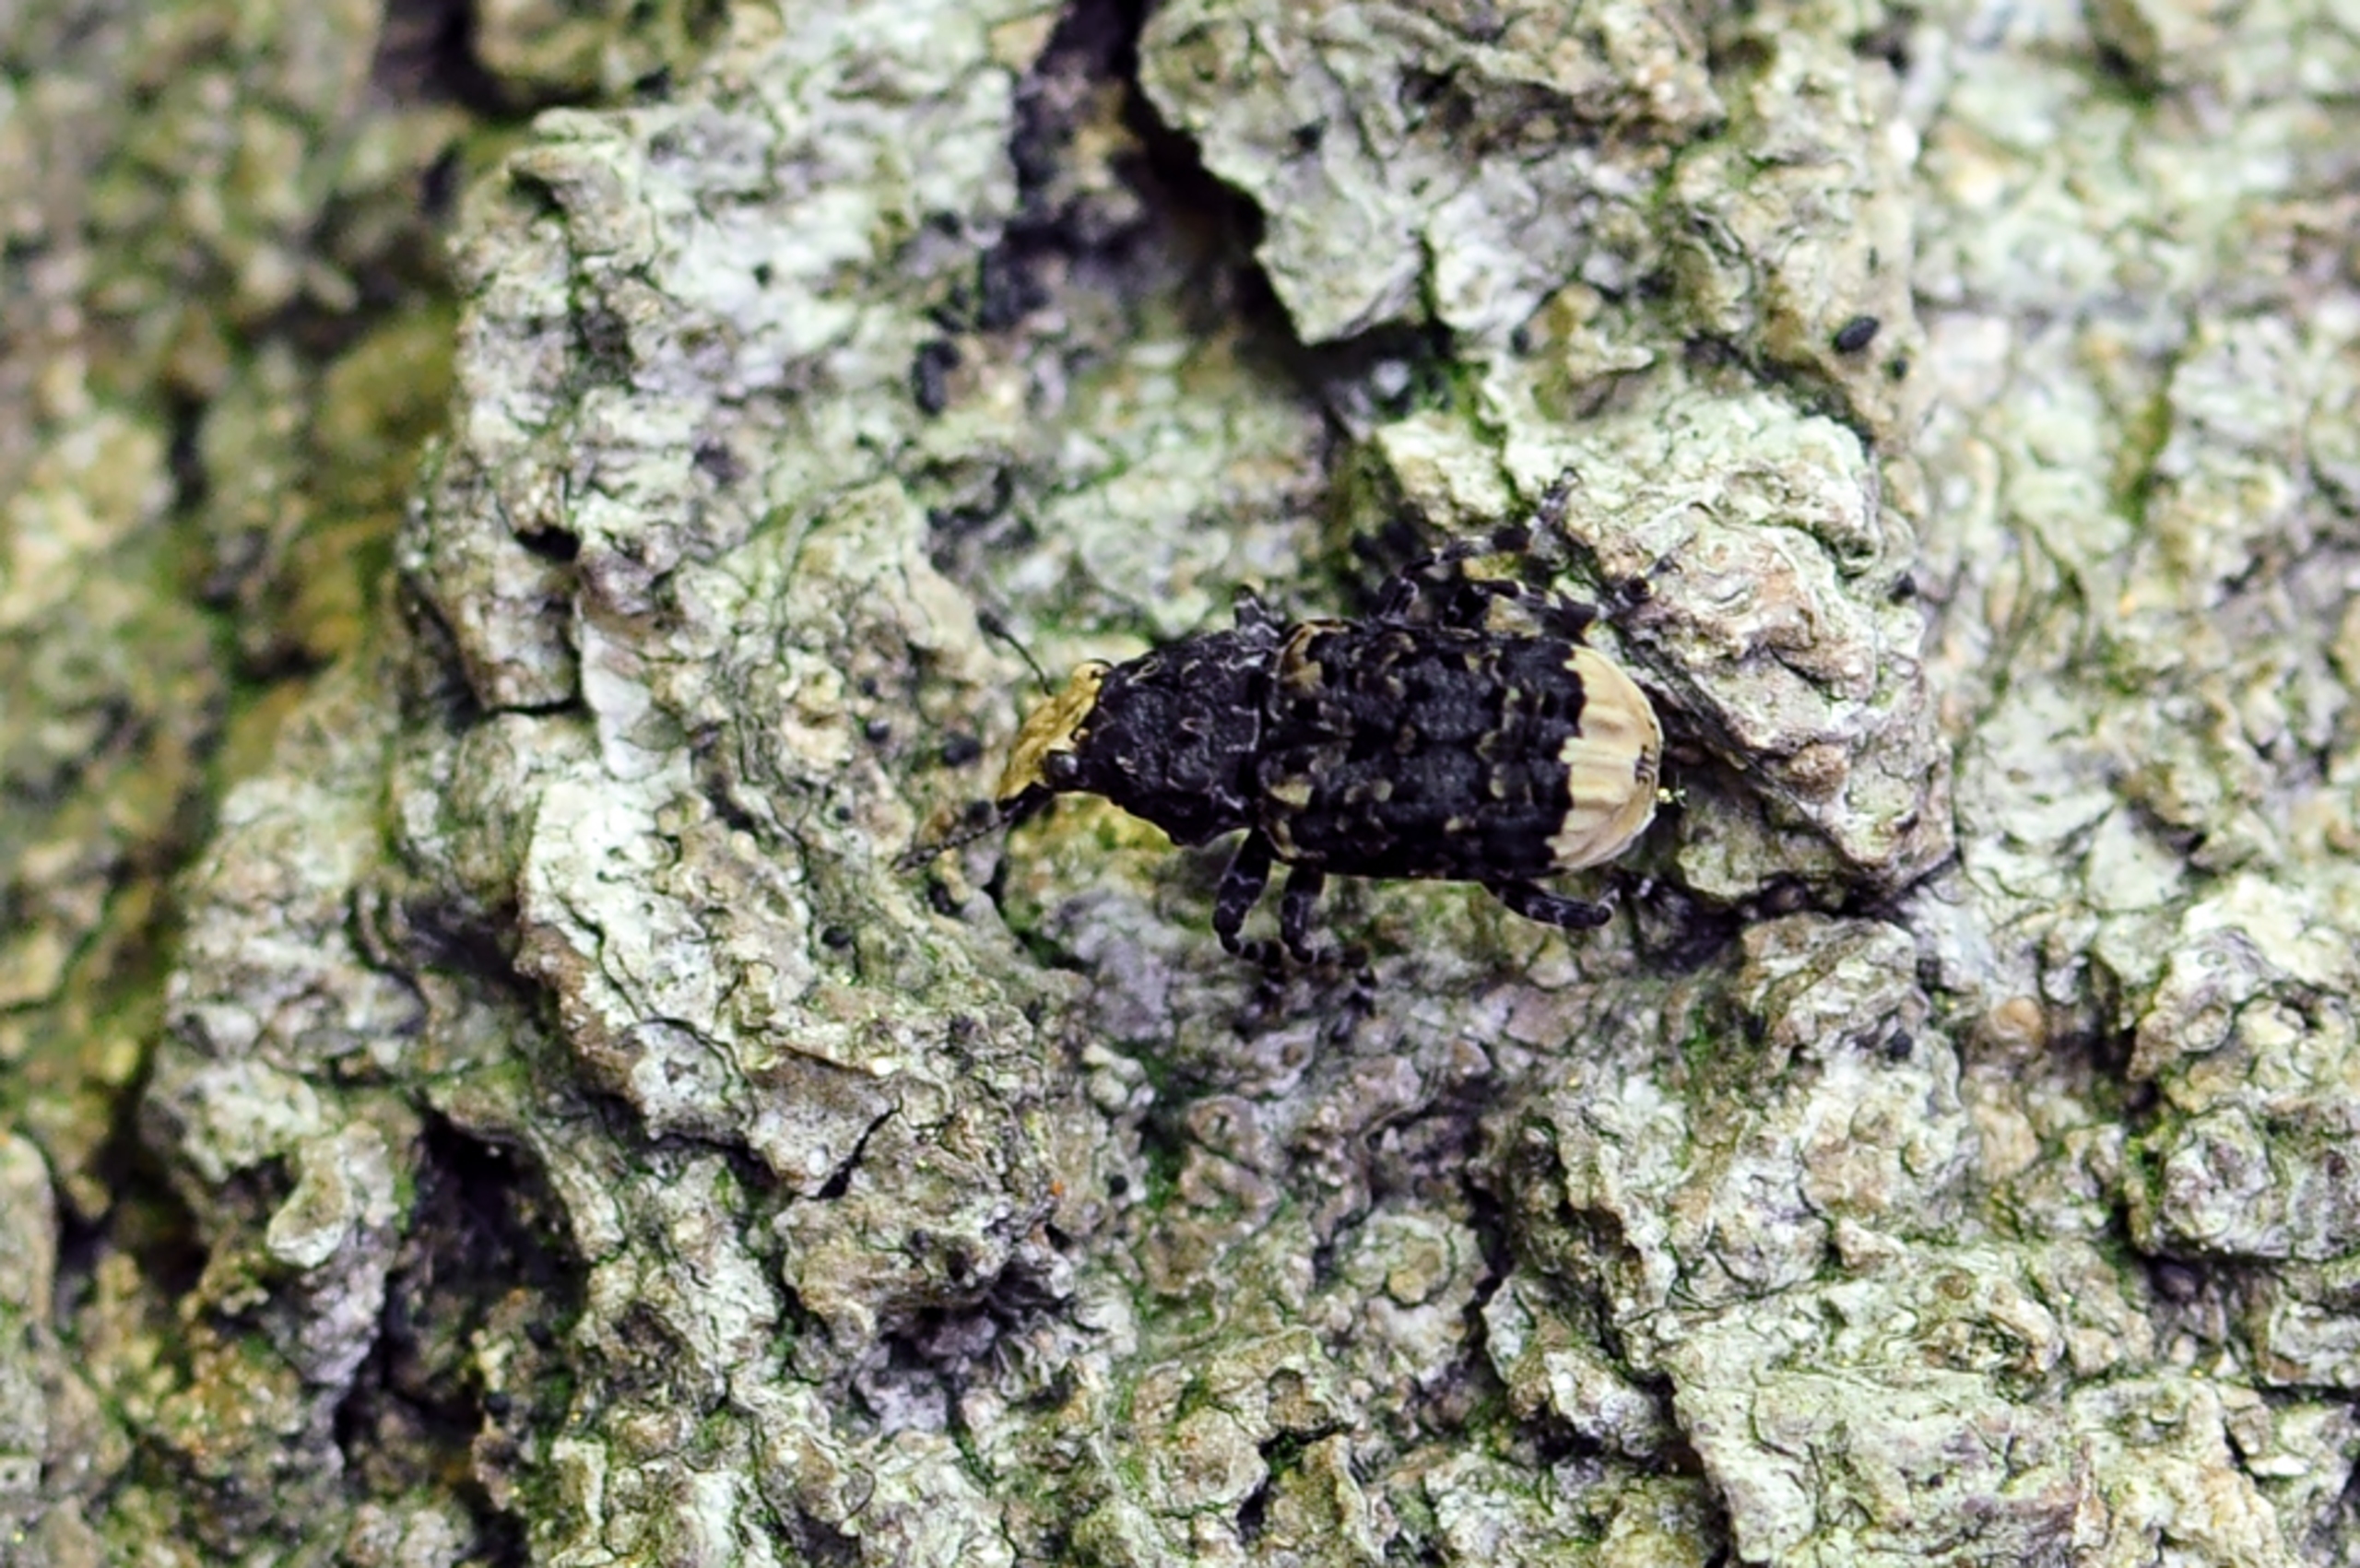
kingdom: Animalia
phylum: Arthropoda
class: Insecta
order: Coleoptera
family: Anthribidae
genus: Platyrhinus
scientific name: Platyrhinus resinosus
